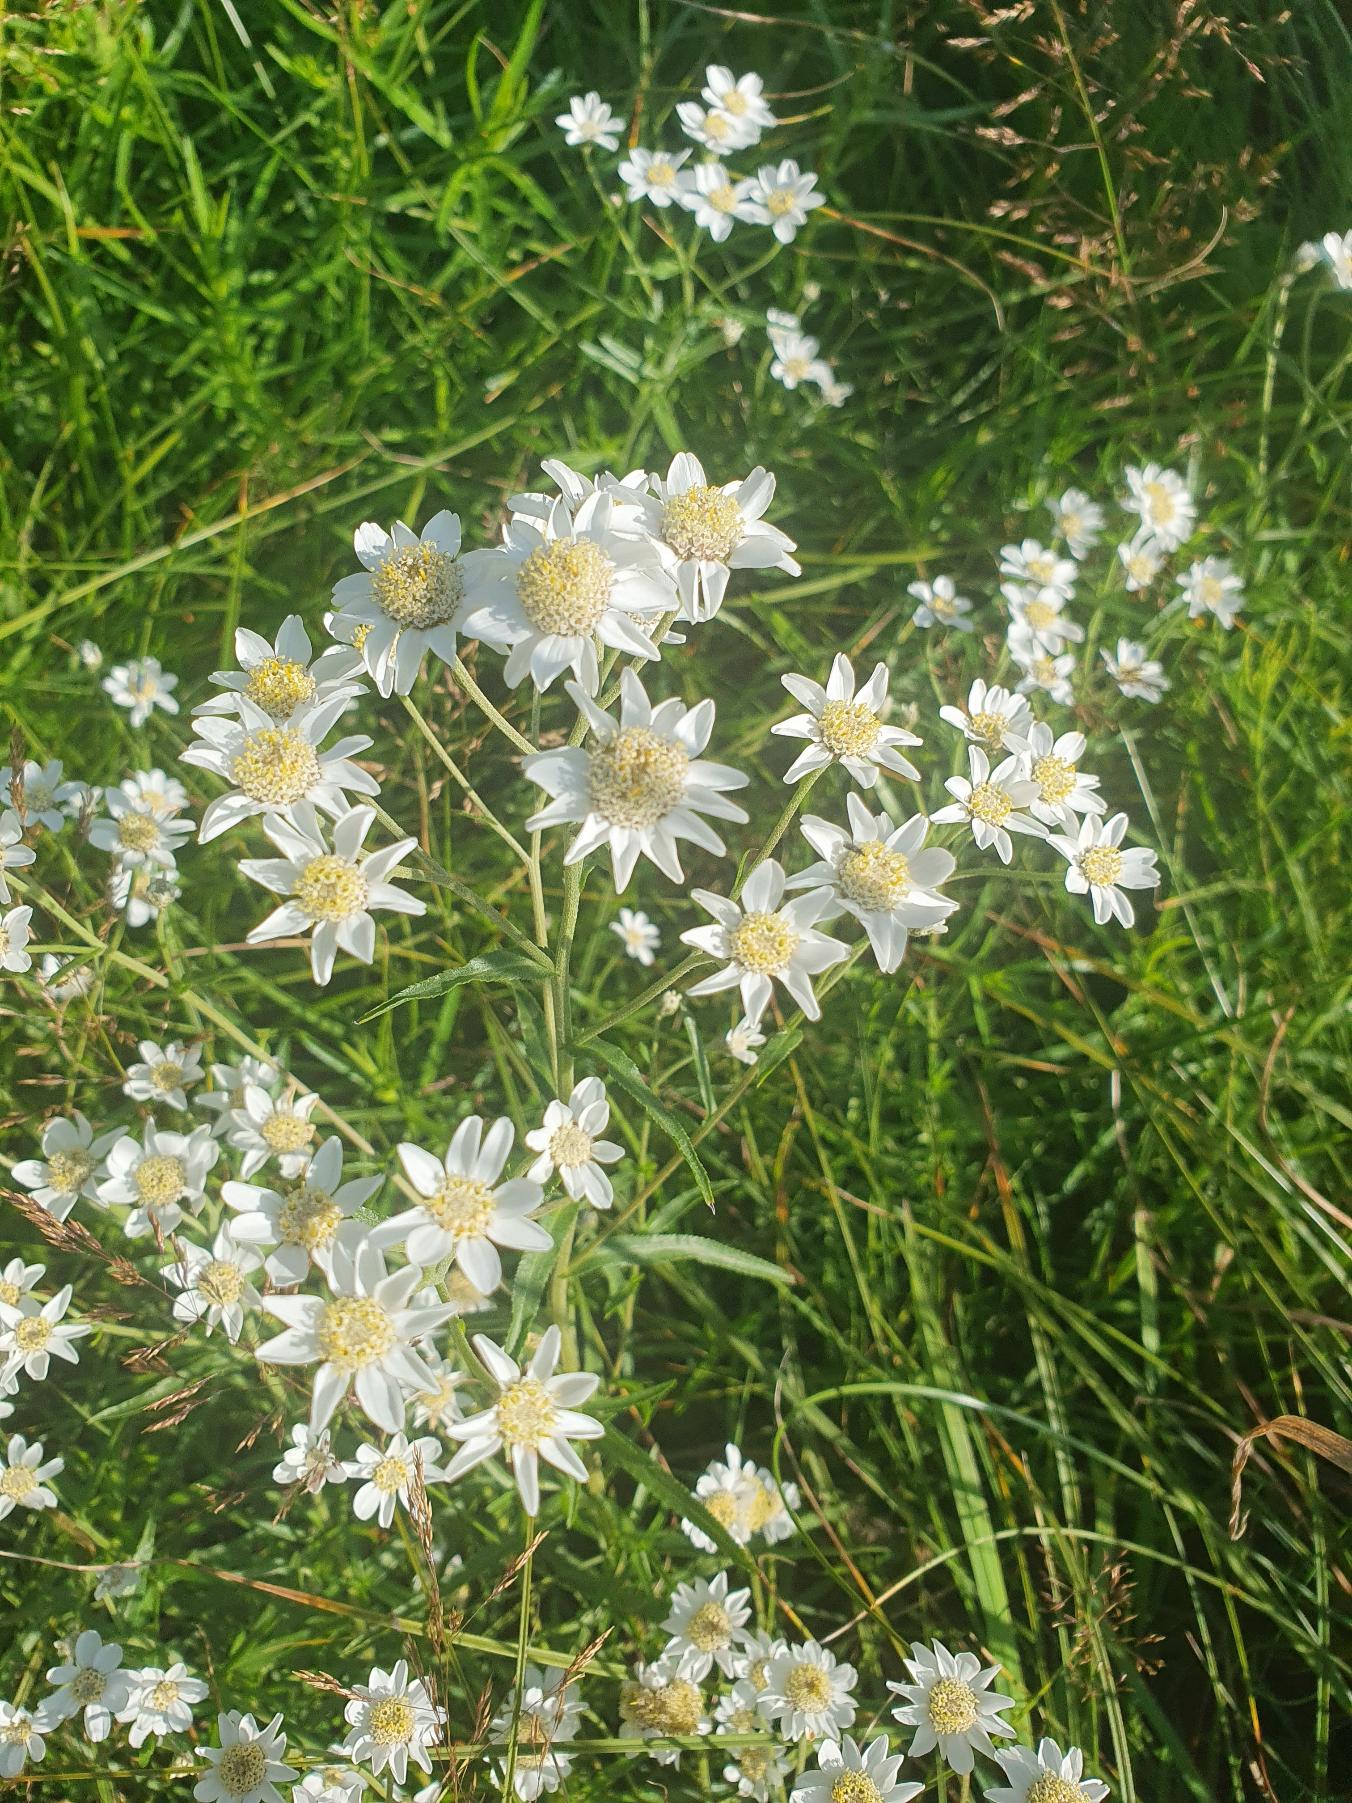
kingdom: Plantae
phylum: Tracheophyta
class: Magnoliopsida
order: Asterales
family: Asteraceae
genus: Achillea
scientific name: Achillea ptarmica
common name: Nyse-røllike
